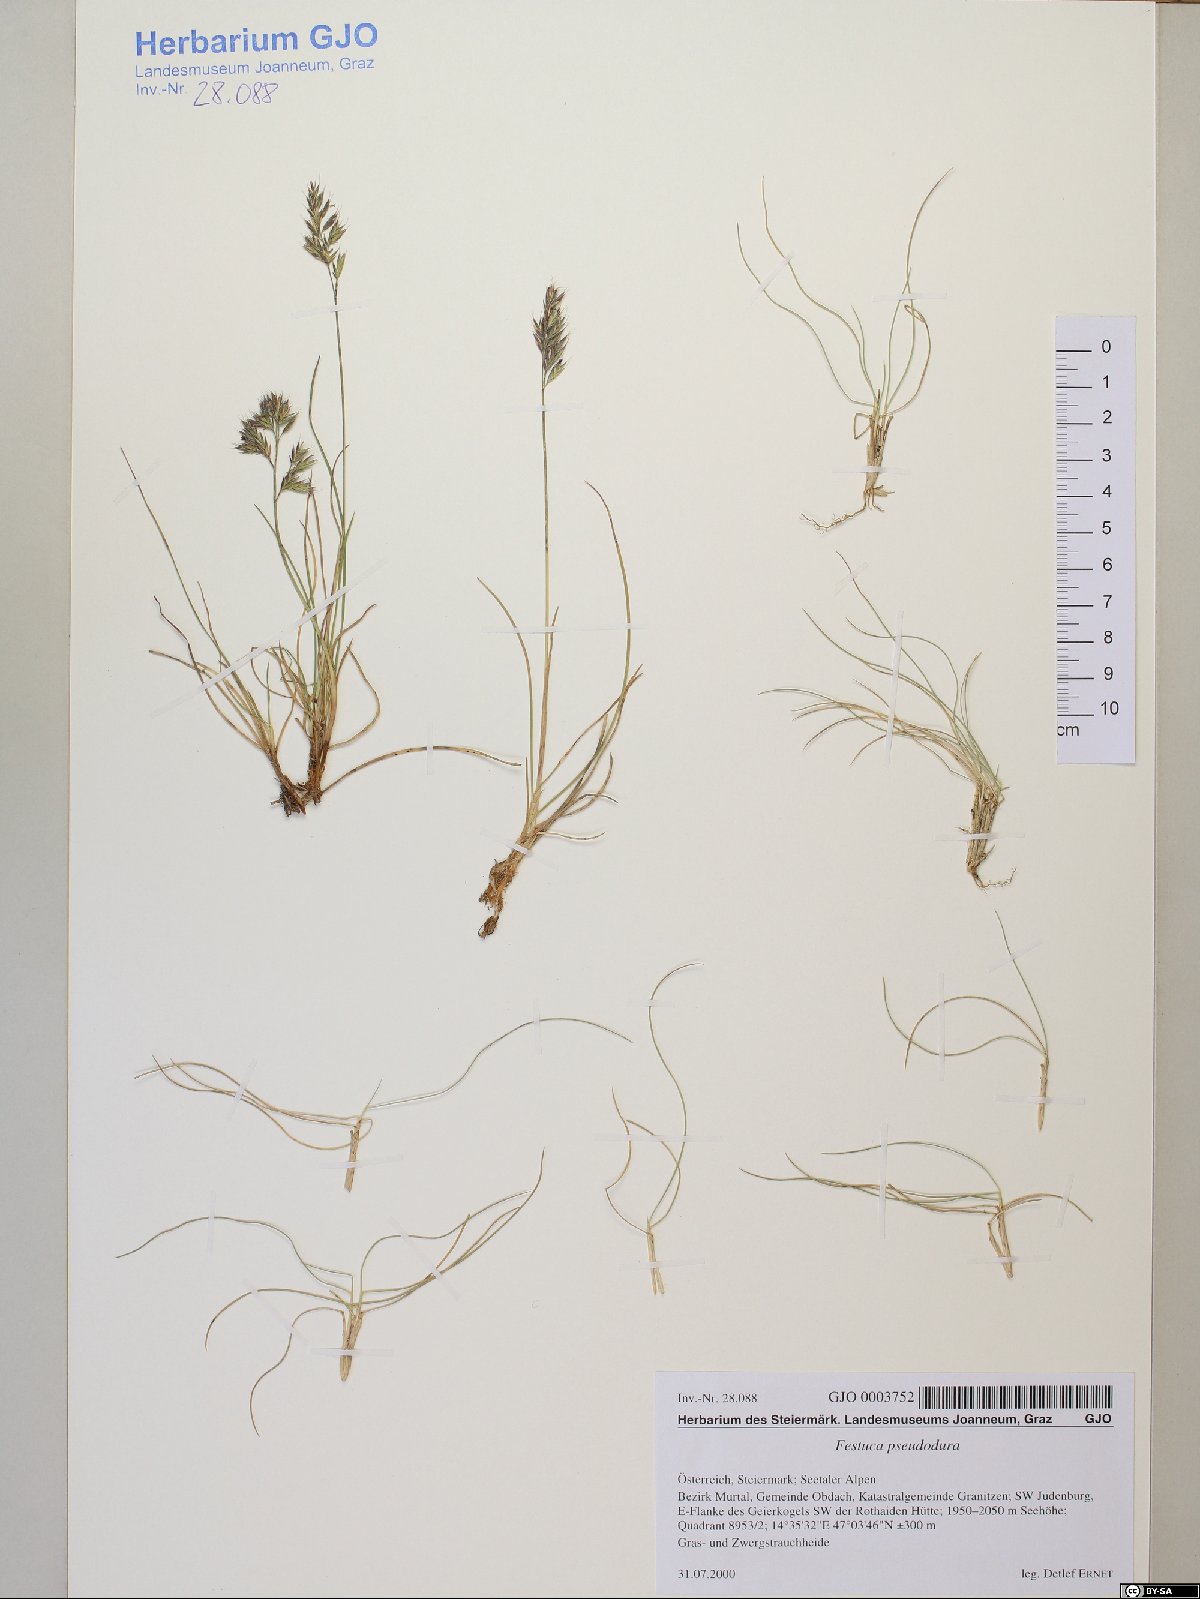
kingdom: Plantae
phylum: Tracheophyta
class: Liliopsida
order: Poales
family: Poaceae
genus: Festuca
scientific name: Festuca pseudodura
